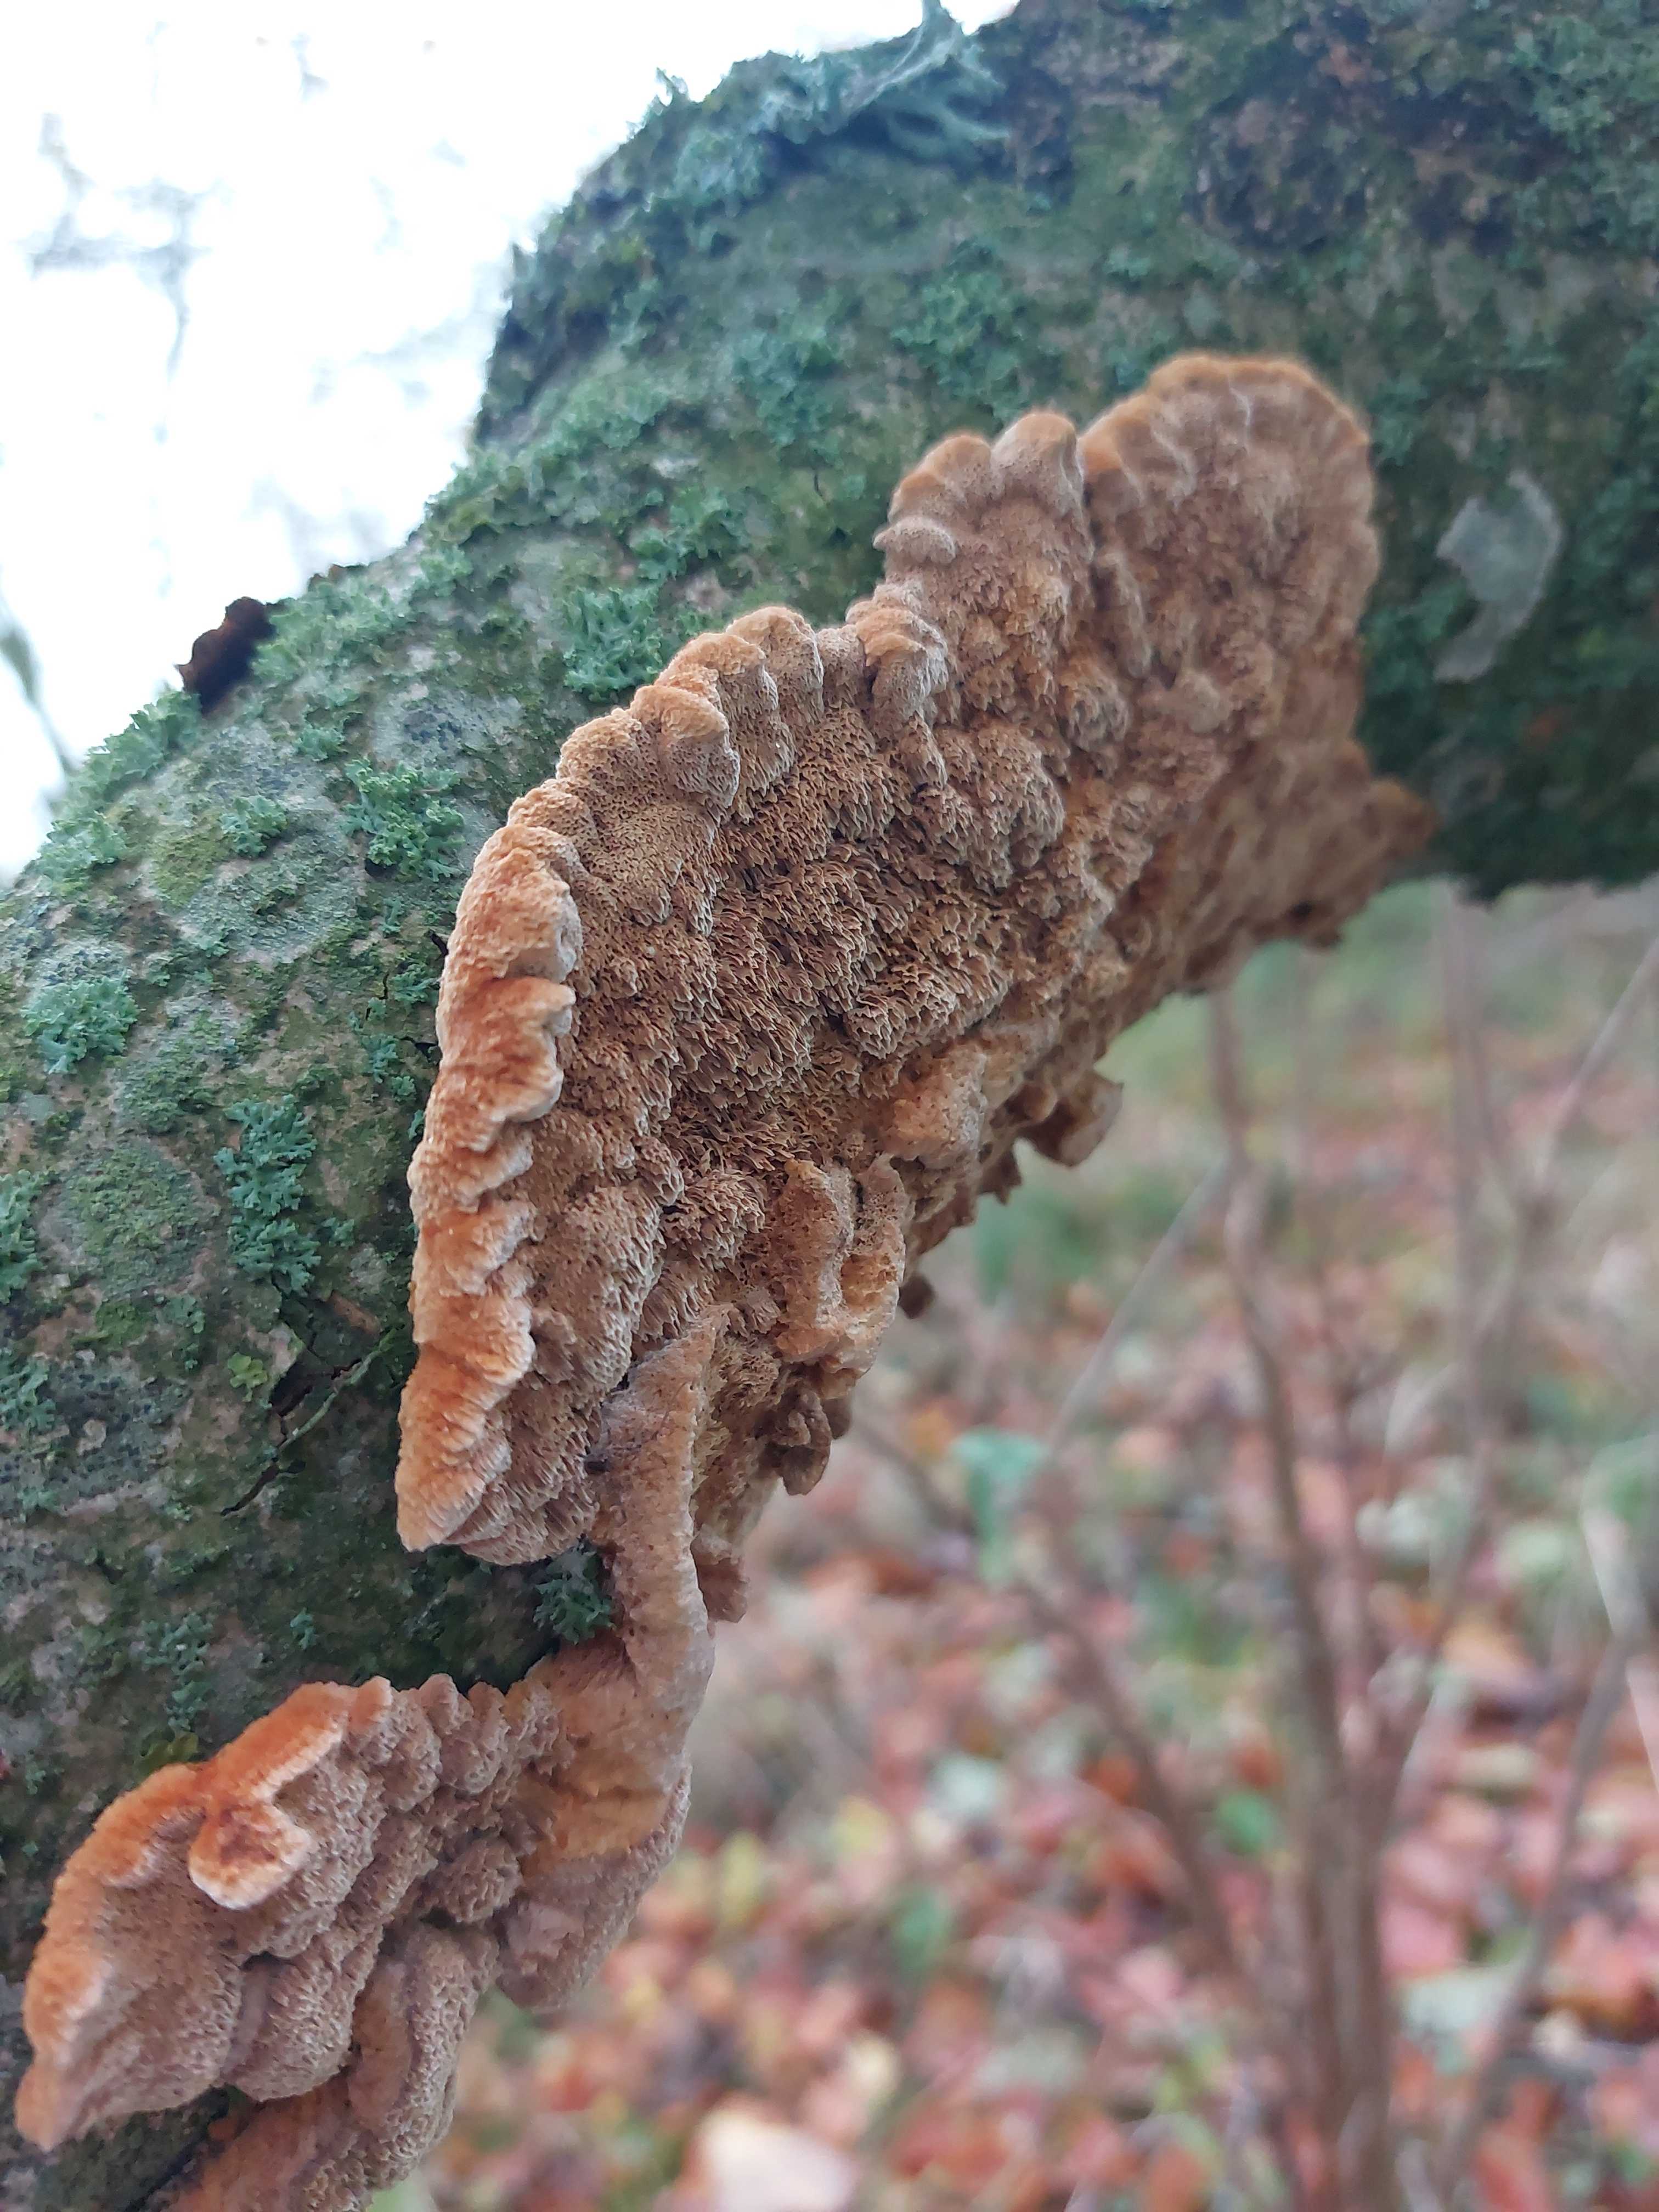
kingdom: Fungi
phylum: Basidiomycota
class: Agaricomycetes
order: Hymenochaetales
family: Hymenochaetaceae
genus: Mensularia
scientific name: Mensularia nodulosa
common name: bøge-spejlporesvamp
